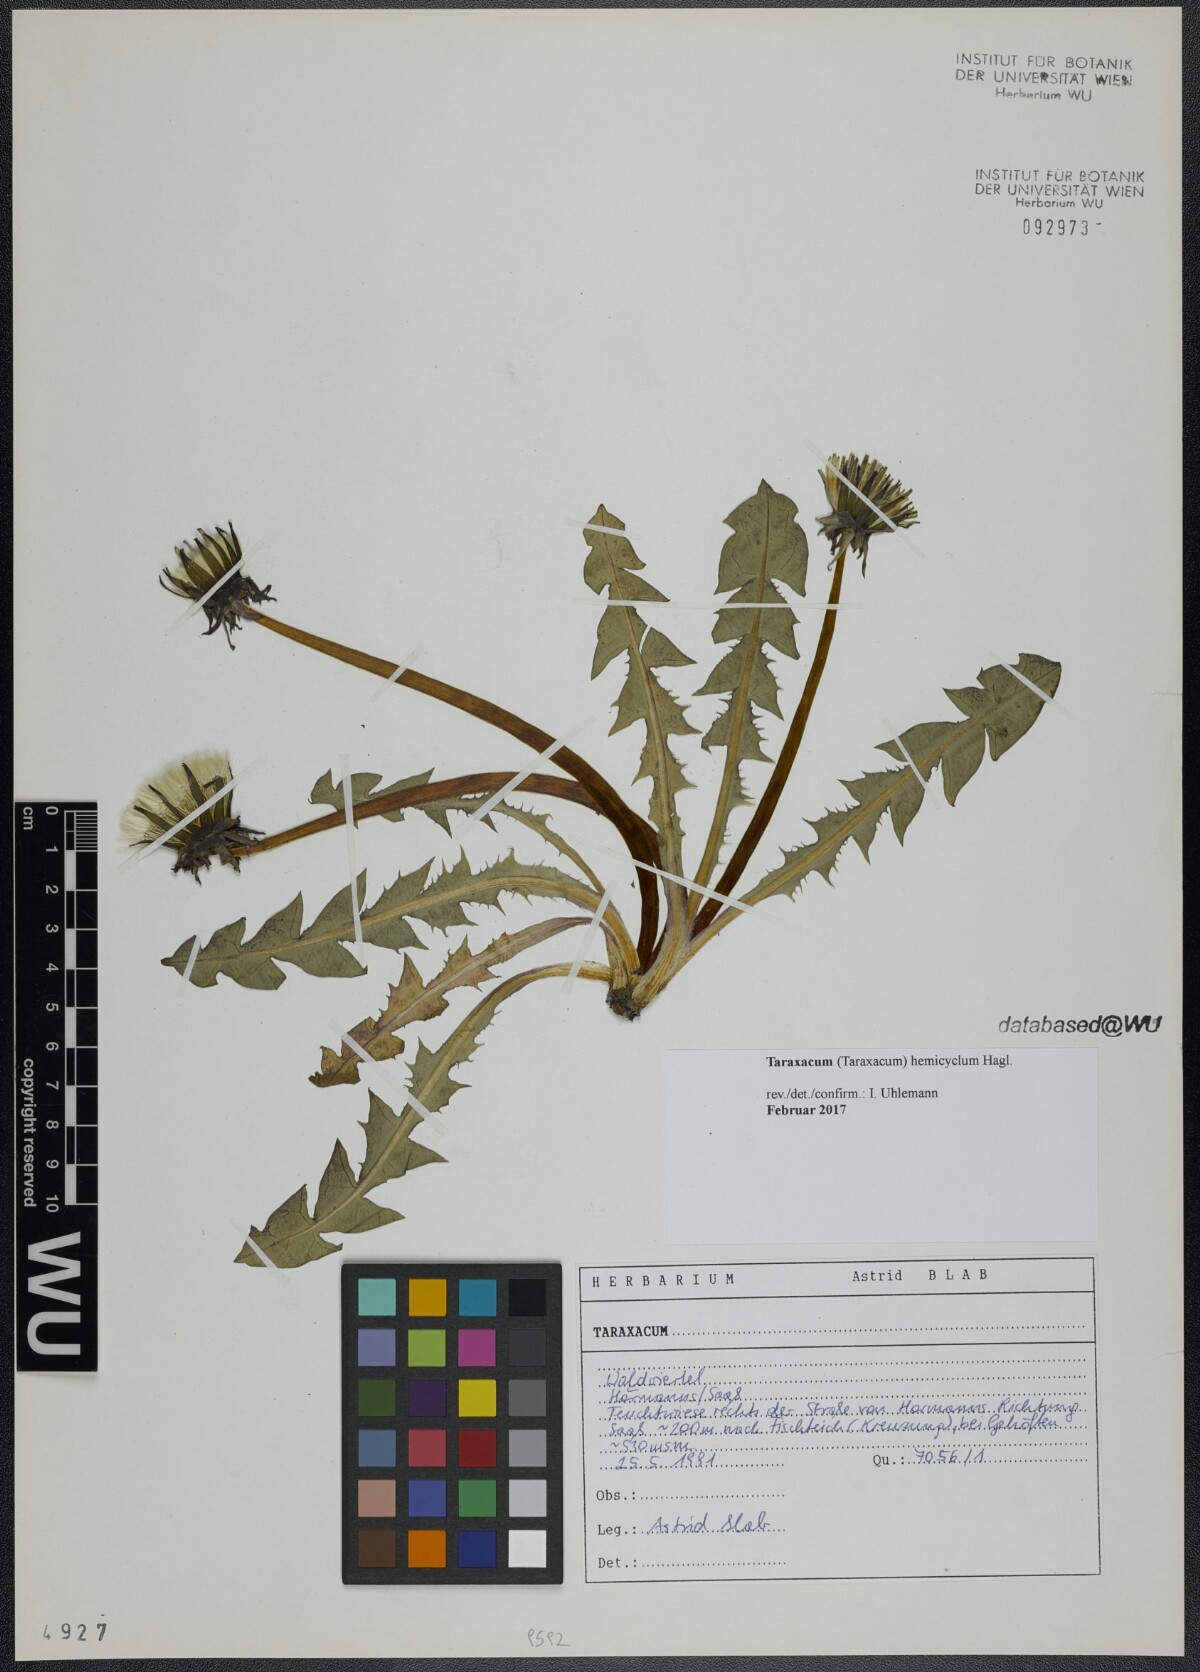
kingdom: Plantae
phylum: Tracheophyta
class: Magnoliopsida
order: Asterales
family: Asteraceae
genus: Taraxacum
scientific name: Taraxacum adiantifrons
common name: Pretty-leaved dandelion
